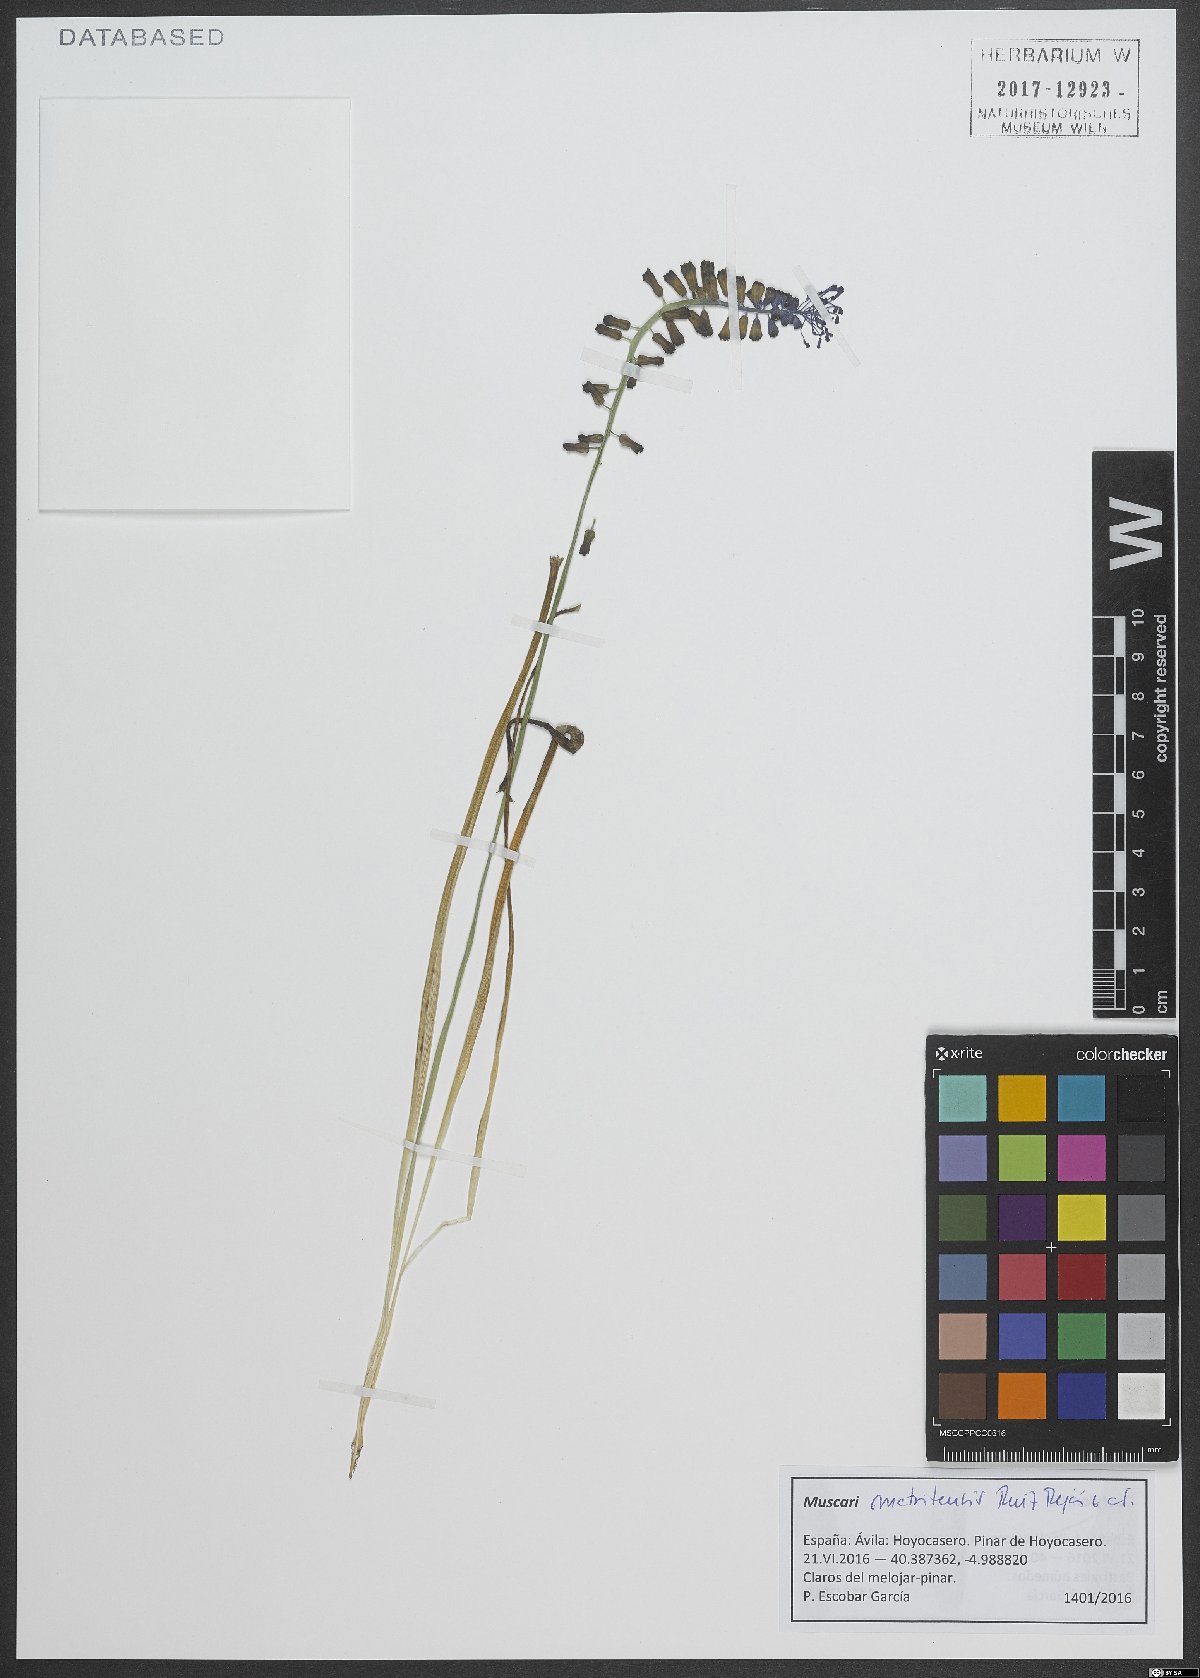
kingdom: Plantae
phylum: Tracheophyta
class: Liliopsida
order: Asparagales
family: Asparagaceae
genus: Muscari
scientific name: Muscari matritense
